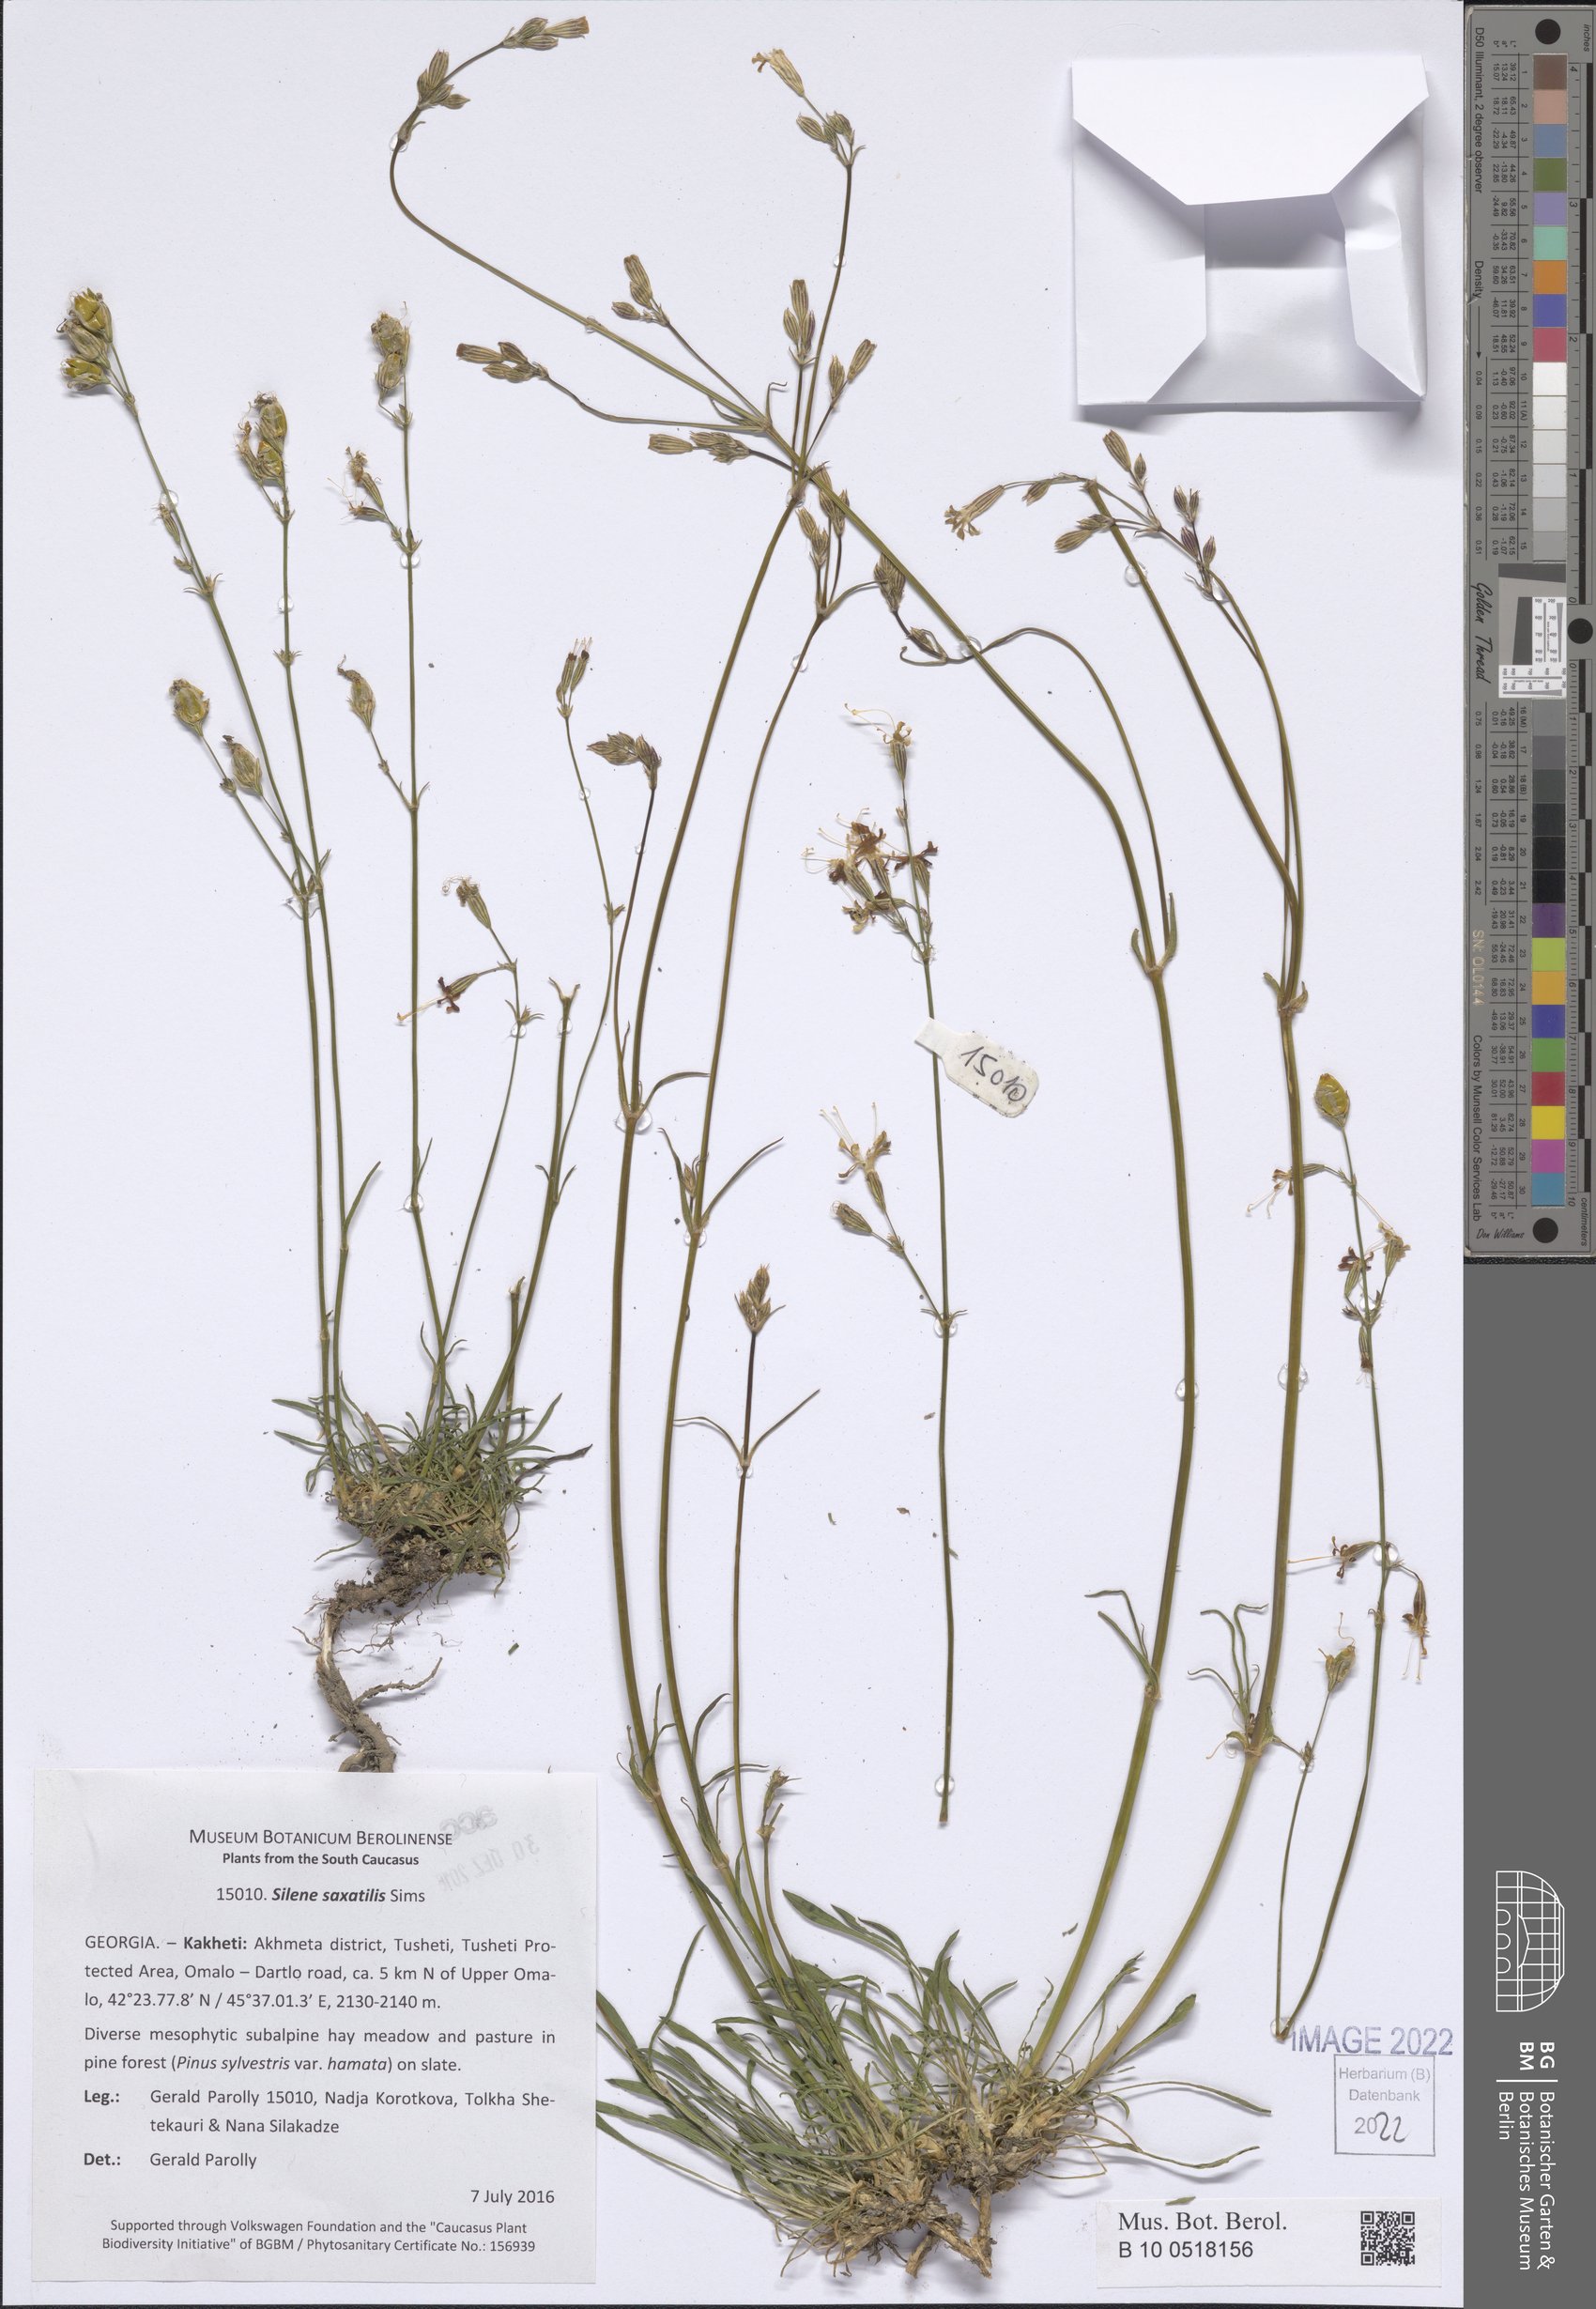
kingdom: Plantae
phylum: Tracheophyta
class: Magnoliopsida
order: Caryophyllales
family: Caryophyllaceae
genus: Silene
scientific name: Silene saxatilis
